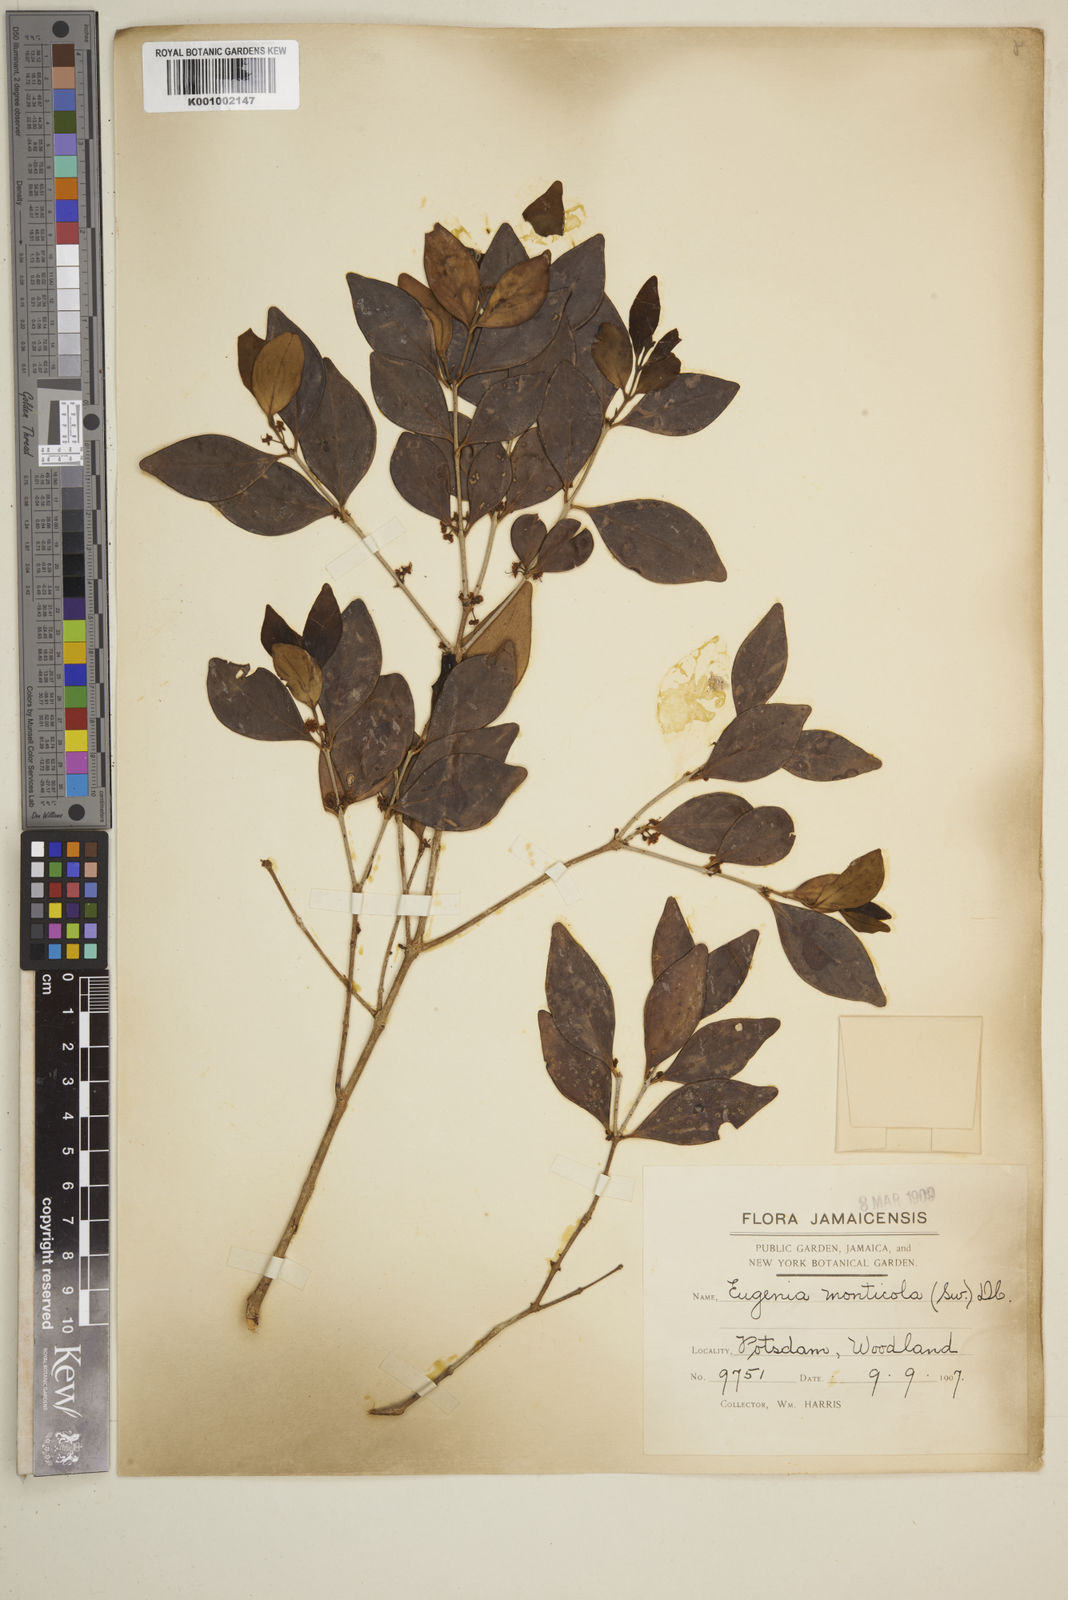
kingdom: Plantae
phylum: Tracheophyta
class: Magnoliopsida
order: Myrtales
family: Myrtaceae
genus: Eugenia
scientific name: Eugenia monticola
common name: Birds berry
